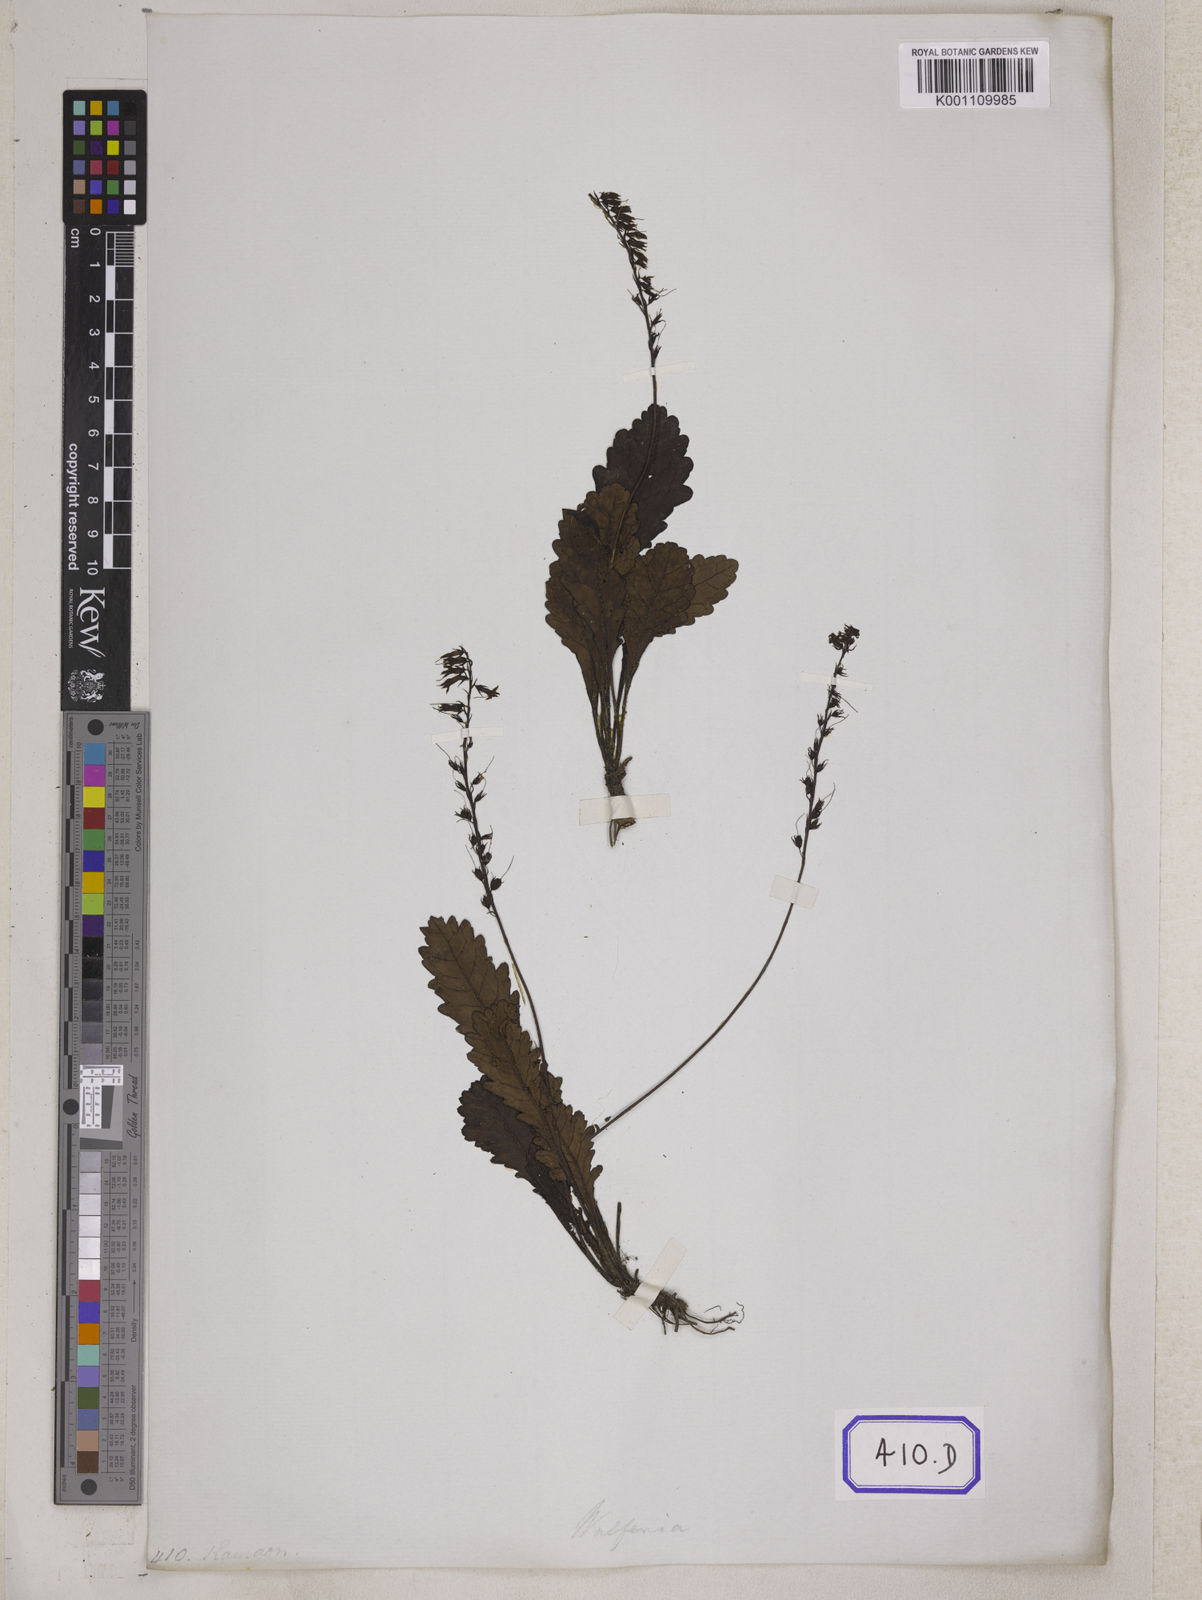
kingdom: Plantae
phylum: Tracheophyta
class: Magnoliopsida
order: Lamiales
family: Plantaginaceae
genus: Wulfeniopsis
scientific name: Wulfeniopsis amherstiana
